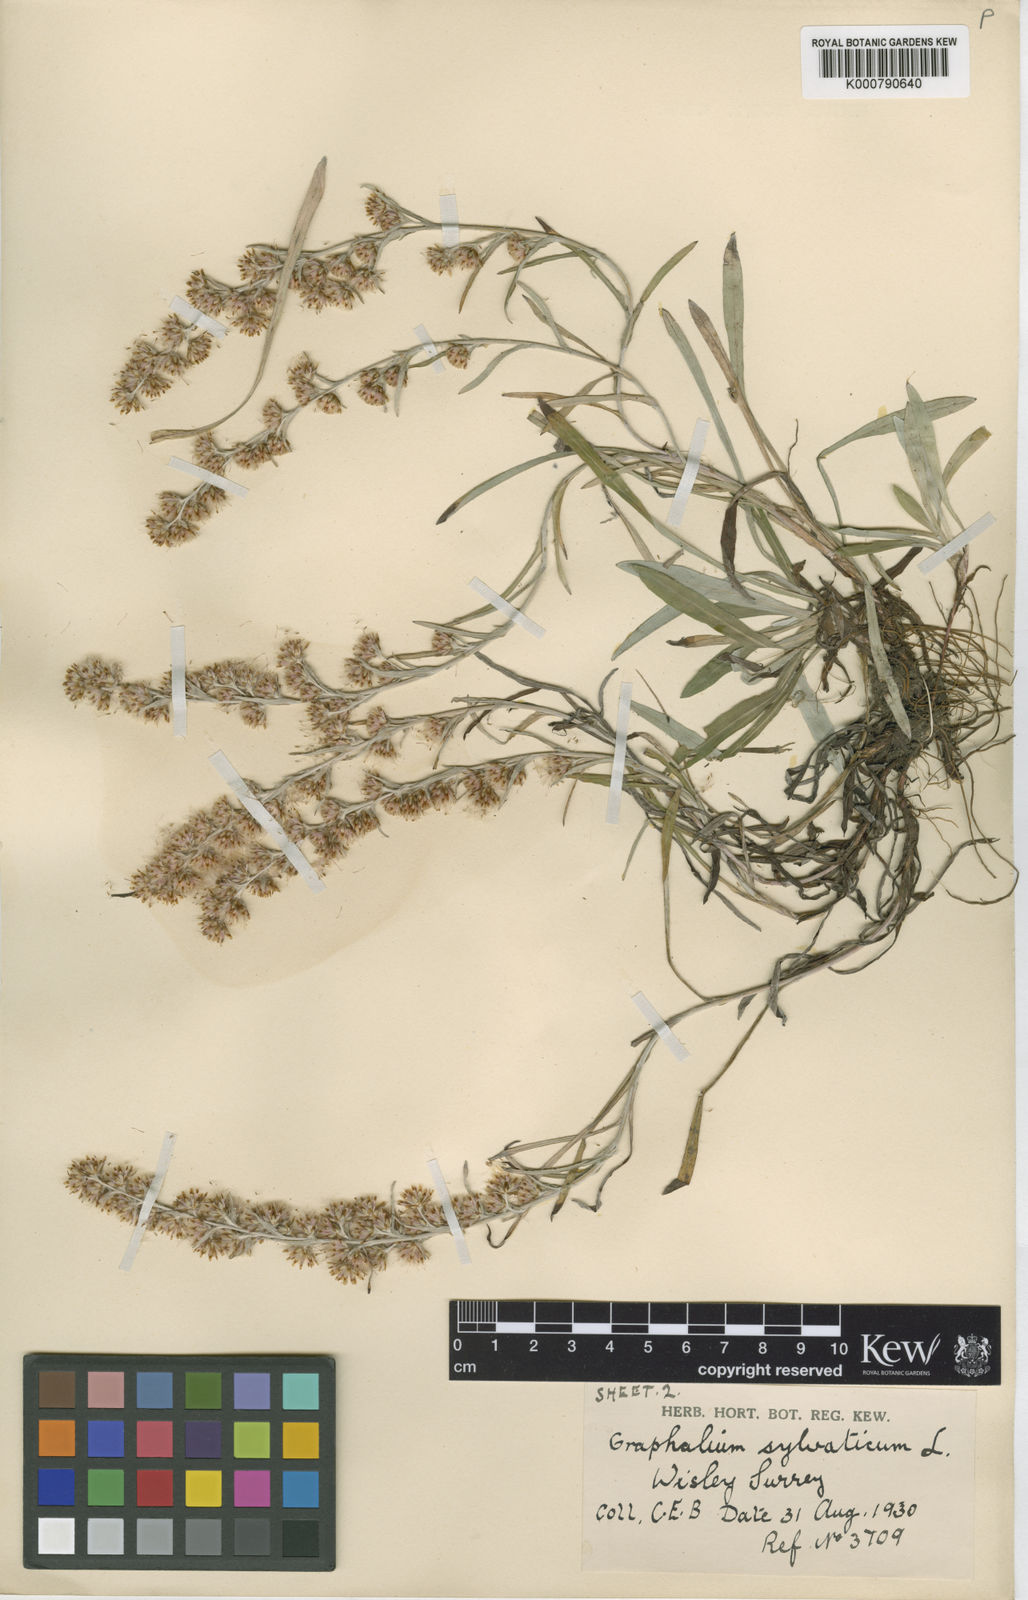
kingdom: Plantae
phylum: Tracheophyta
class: Magnoliopsida
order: Asterales
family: Asteraceae
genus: Omalotheca
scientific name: Omalotheca sylvatica
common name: Heath cudweed
